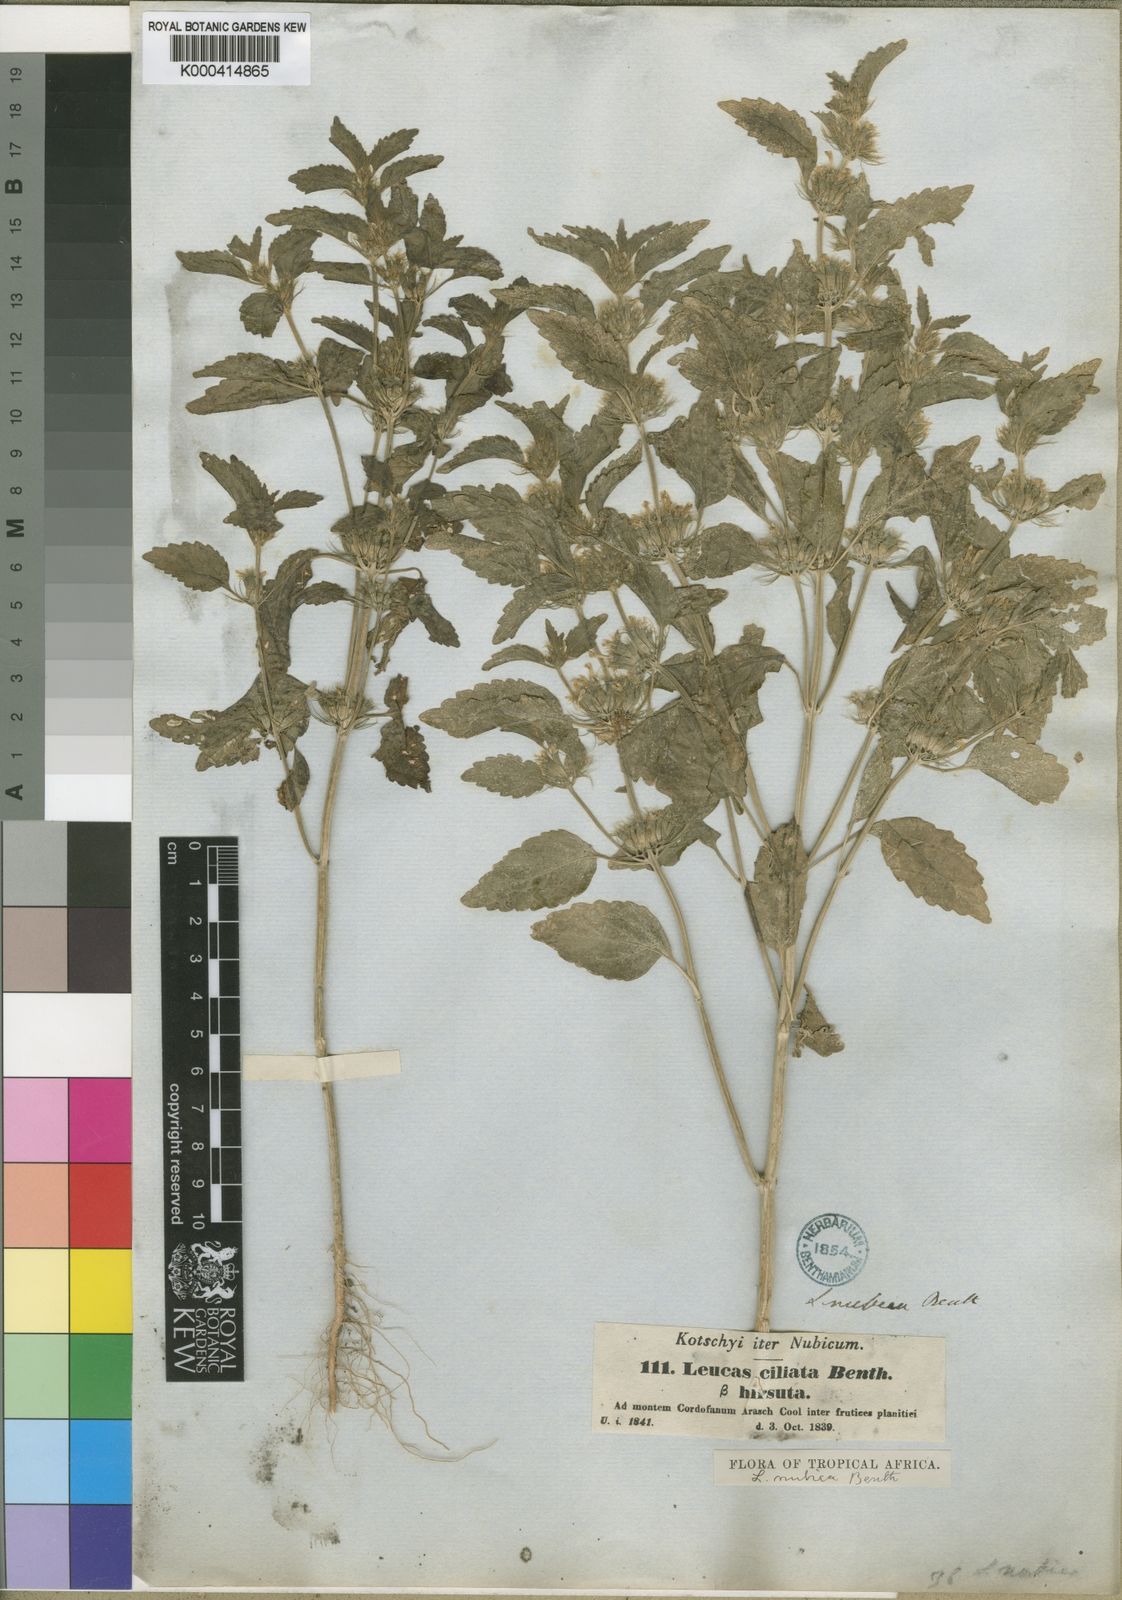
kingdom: Plantae
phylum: Tracheophyta
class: Magnoliopsida
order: Lamiales
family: Lamiaceae
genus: Leucas
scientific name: Leucas nubica
